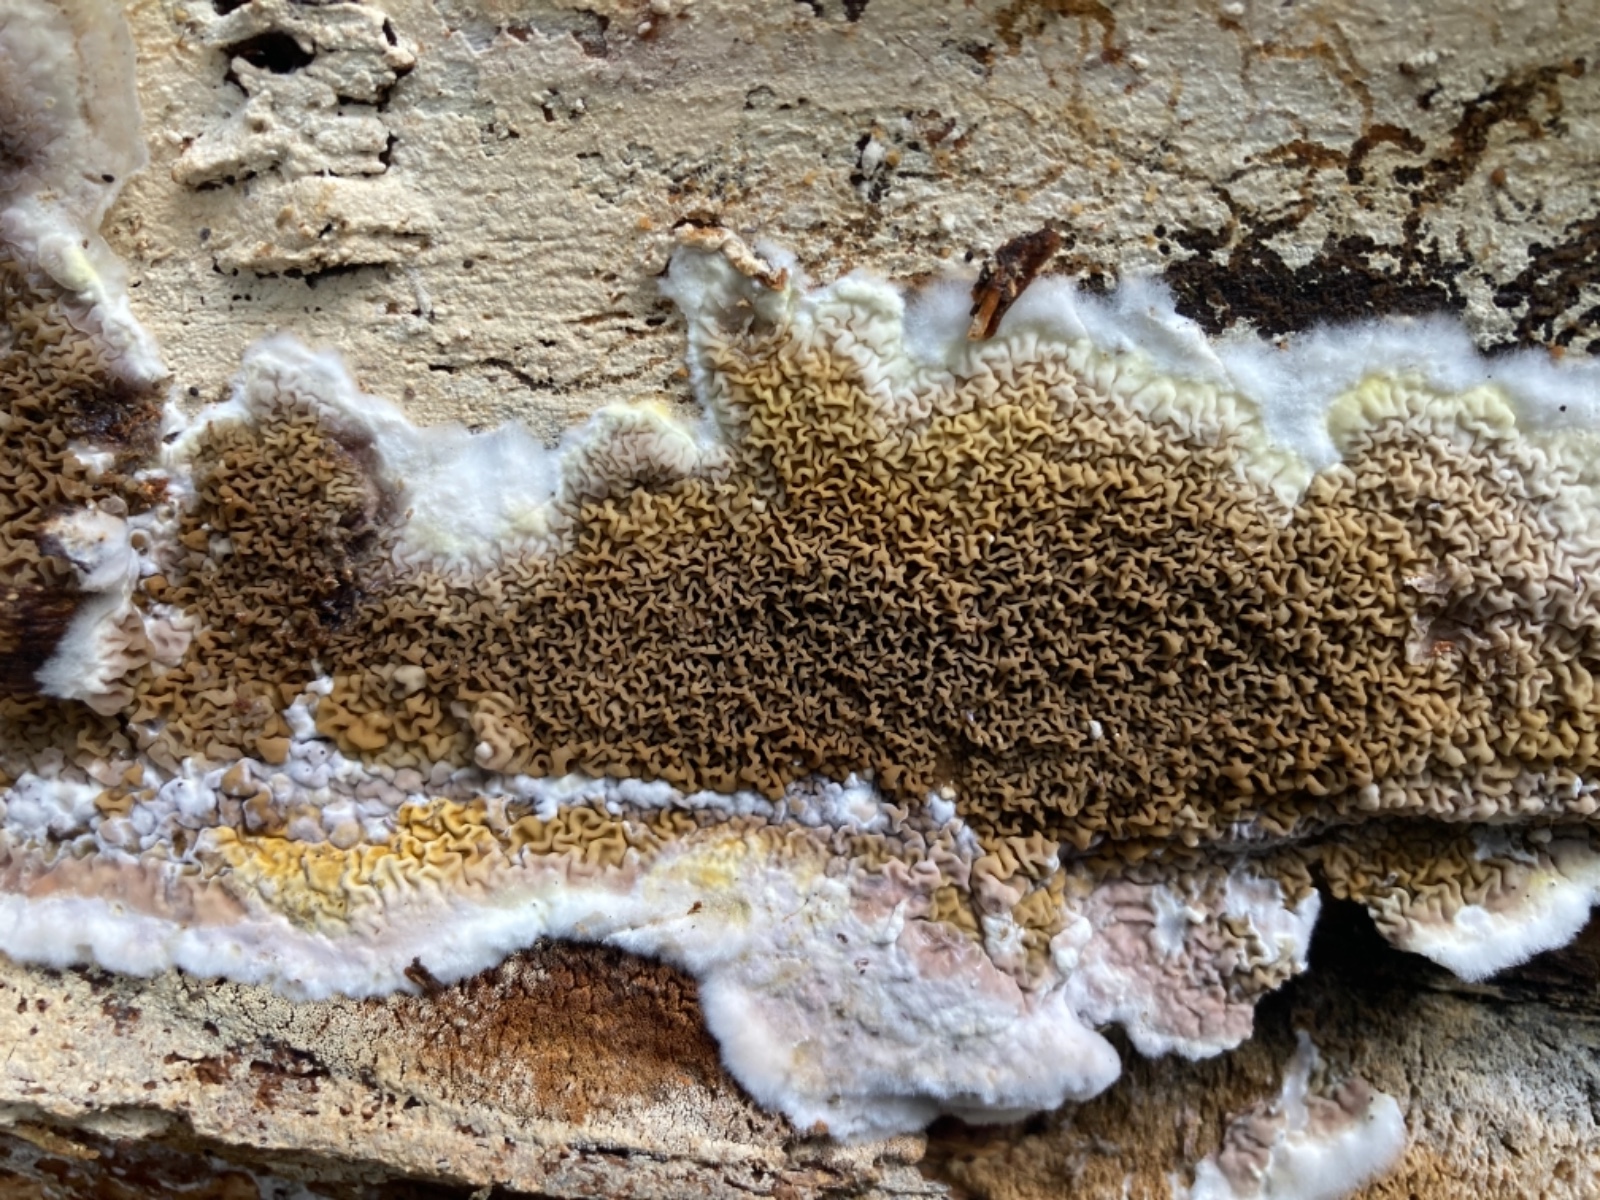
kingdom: Fungi
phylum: Basidiomycota
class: Agaricomycetes
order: Boletales
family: Serpulaceae
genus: Serpula
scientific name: Serpula himantioides
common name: tyndkødet hussvamp
